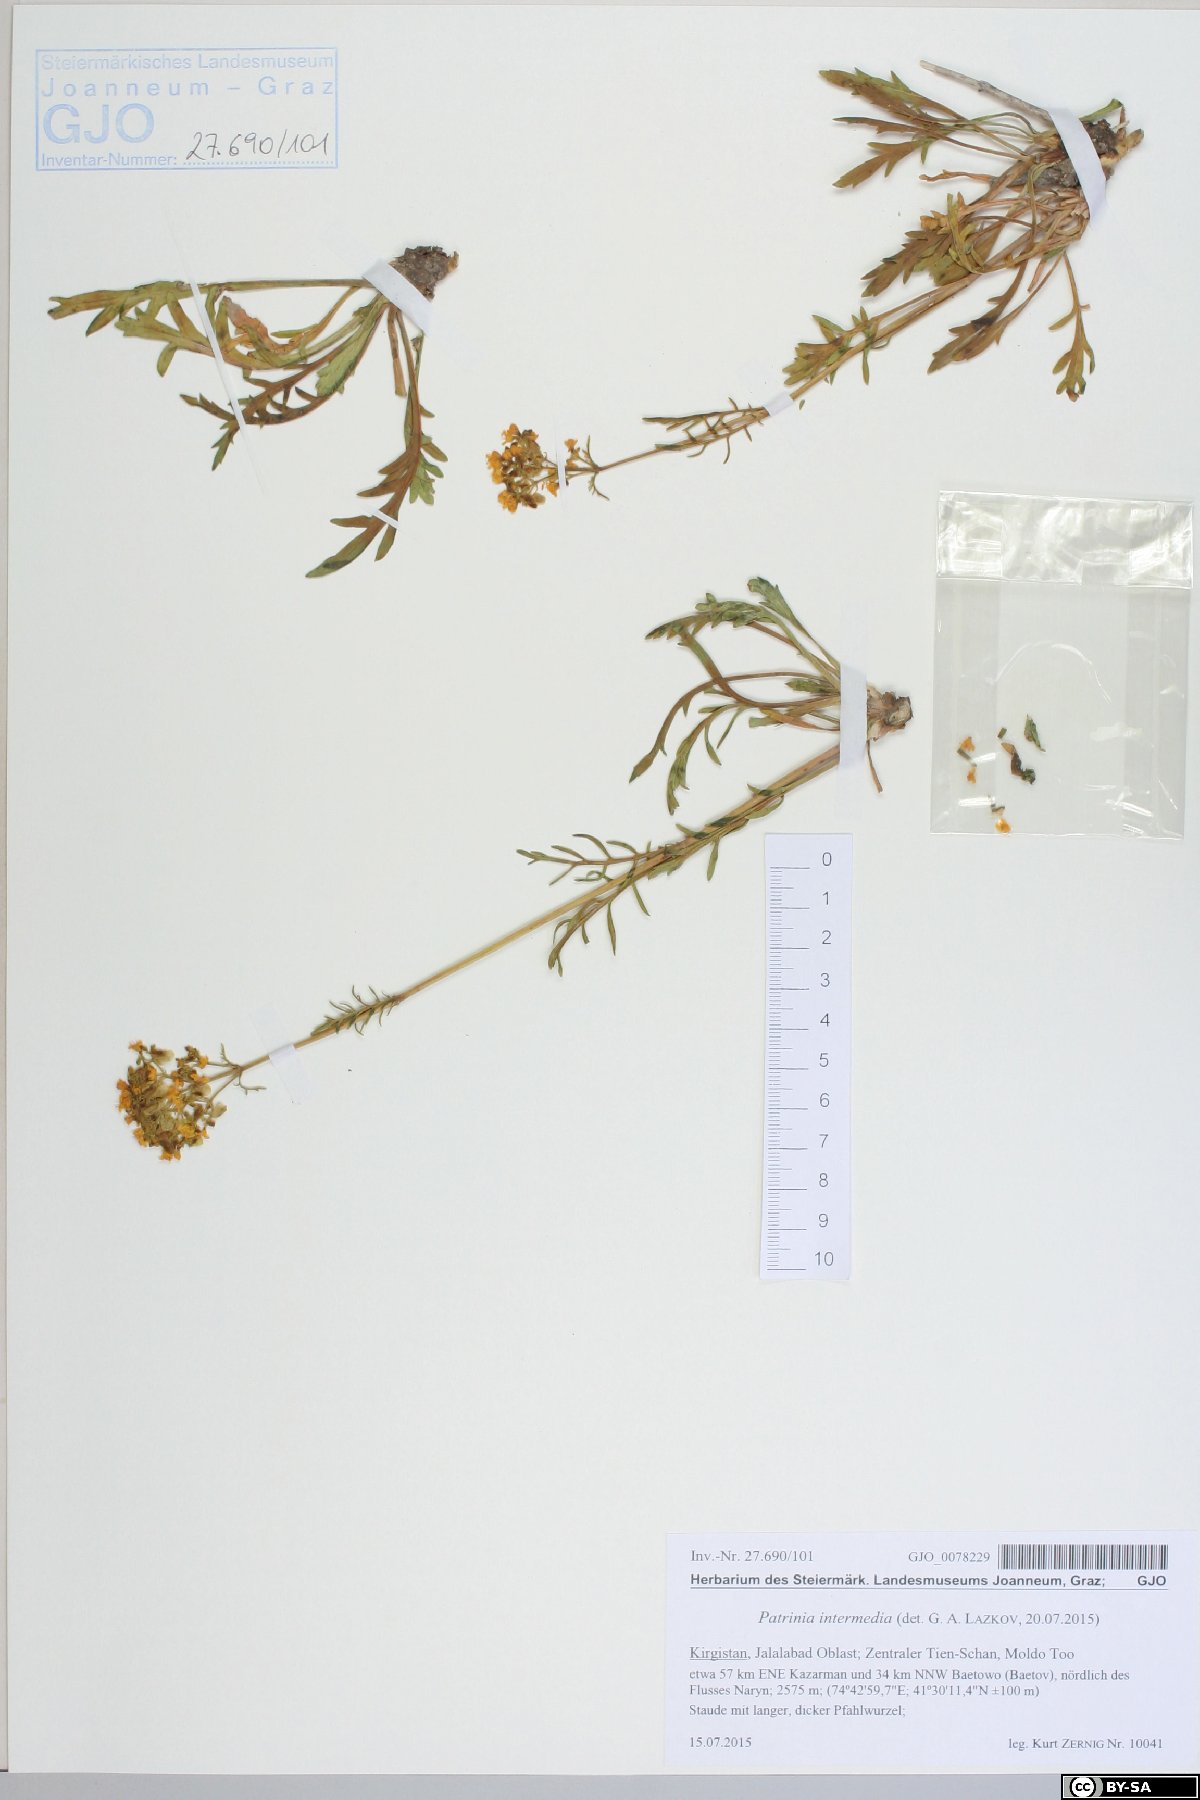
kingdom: Plantae
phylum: Tracheophyta
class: Magnoliopsida
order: Dipsacales
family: Caprifoliaceae
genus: Patrinia
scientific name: Patrinia intermedia
